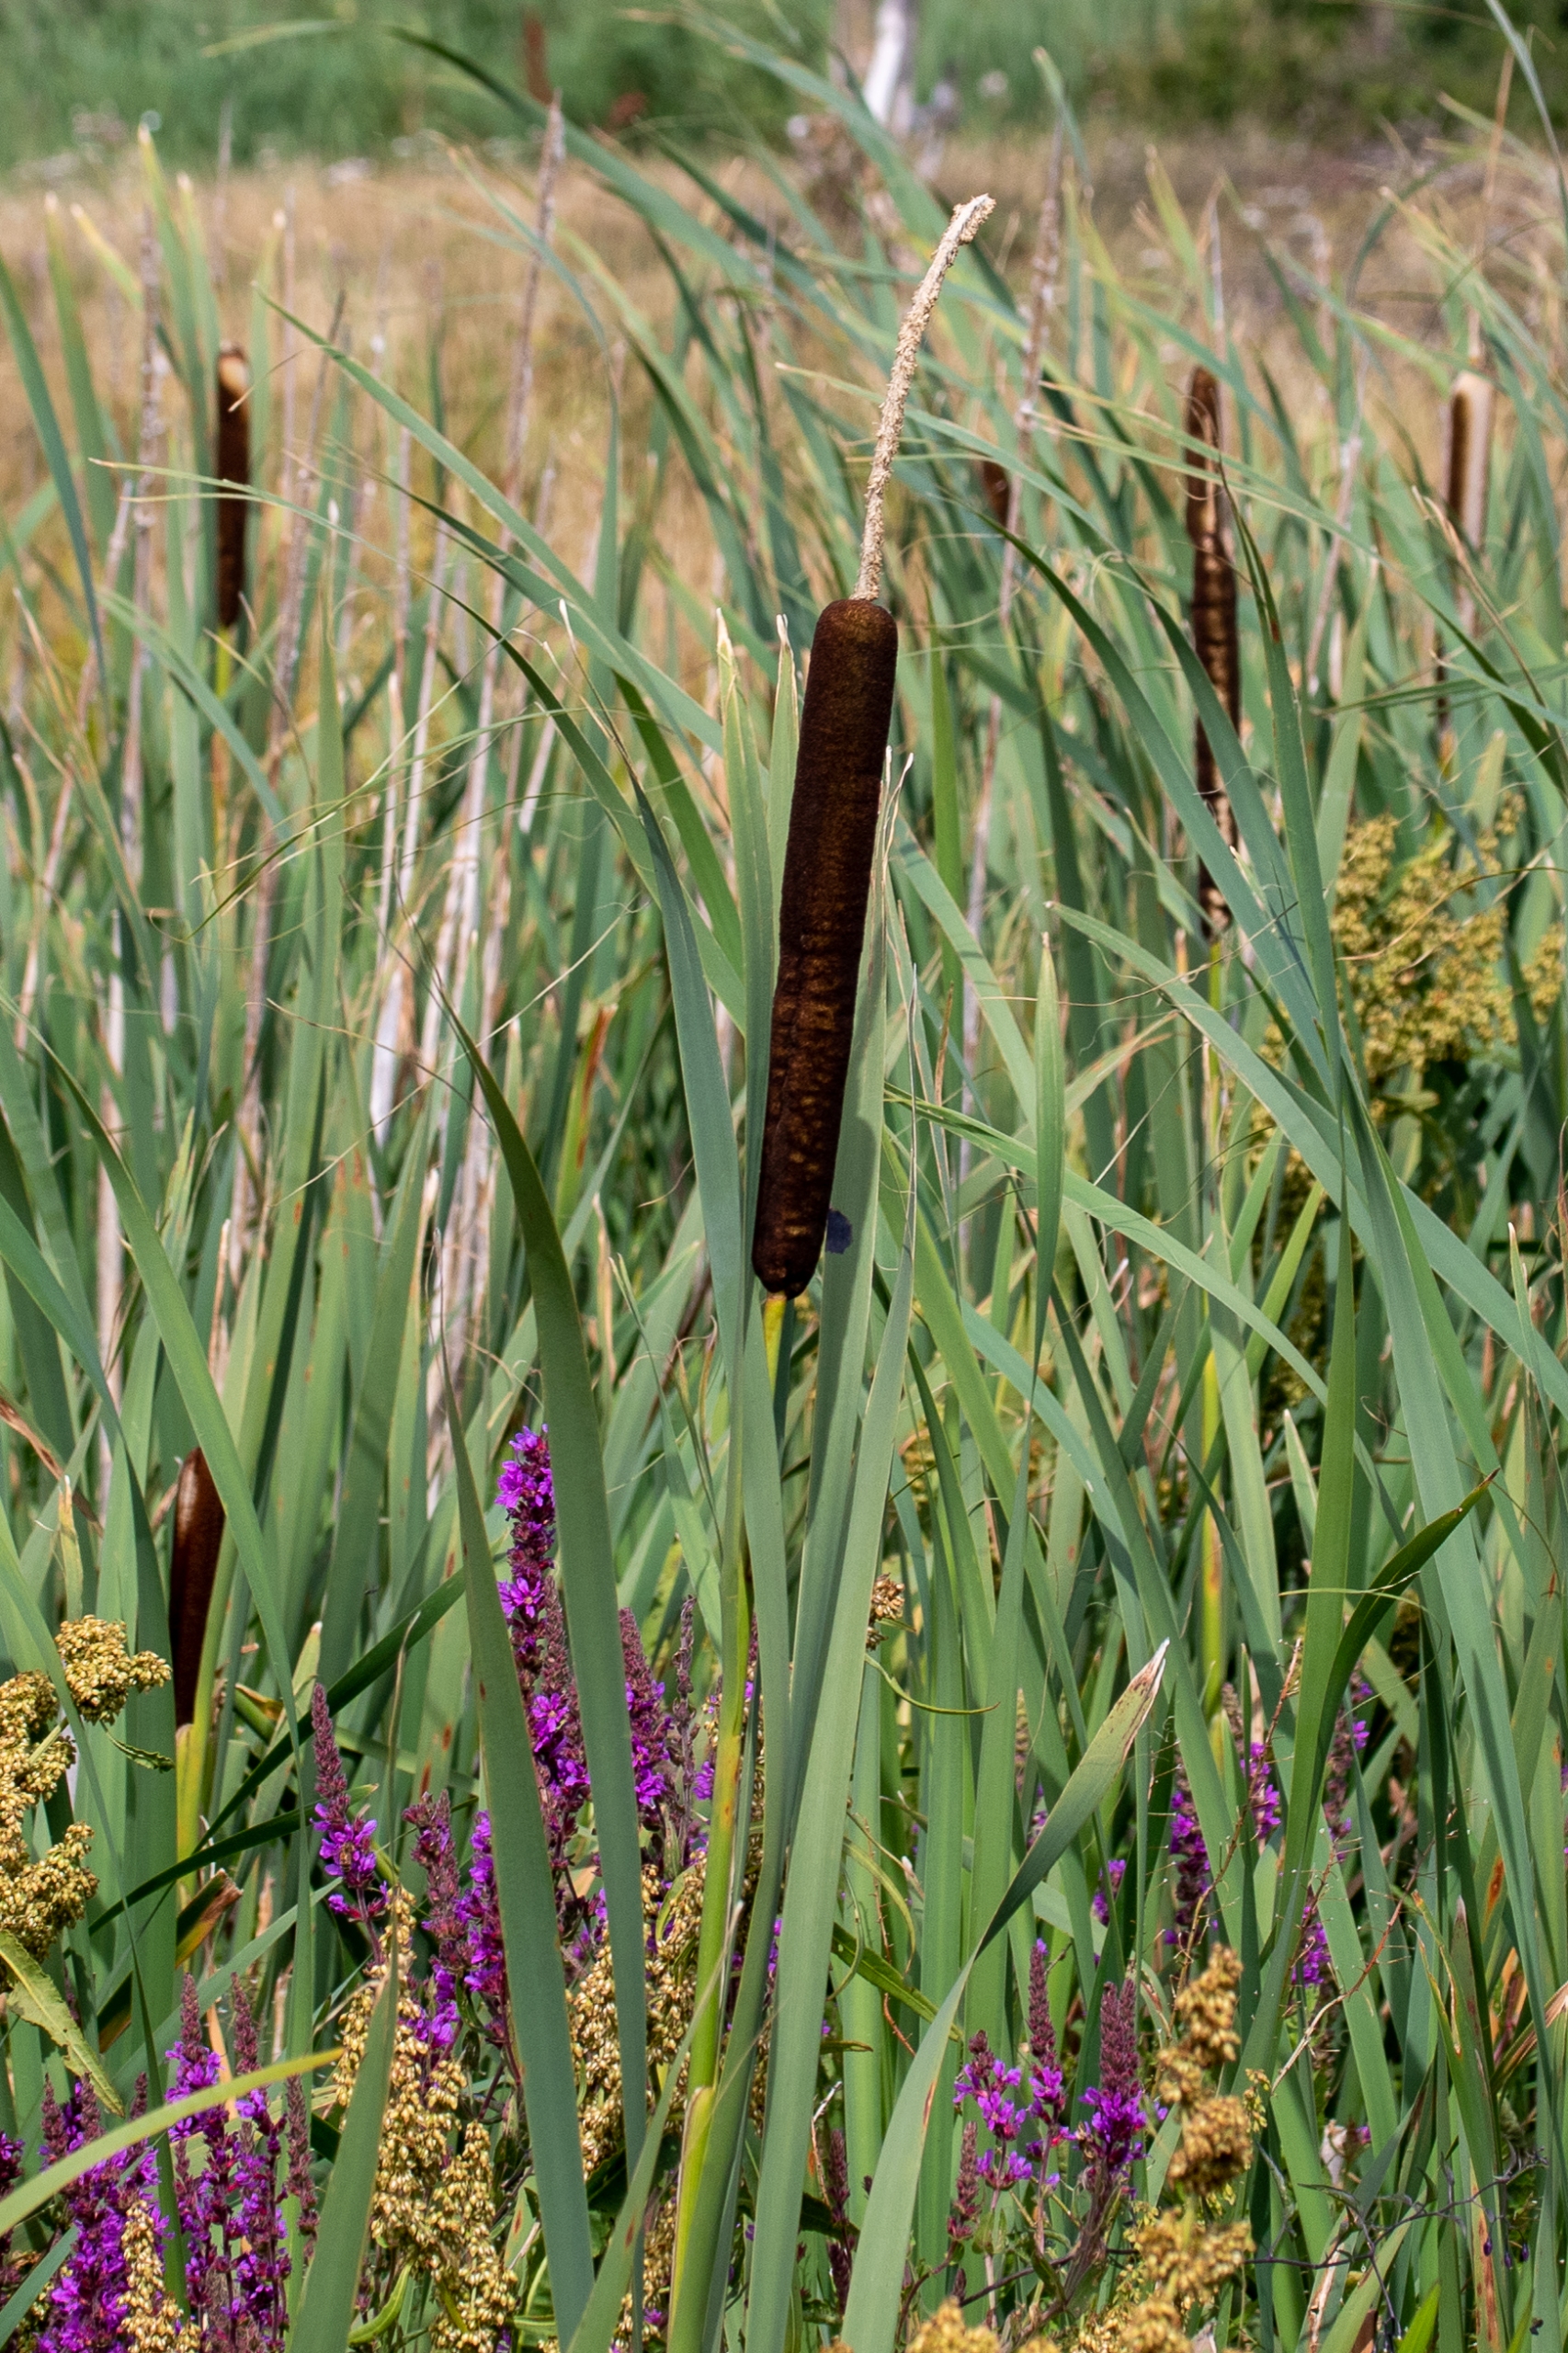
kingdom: Plantae
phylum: Tracheophyta
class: Liliopsida
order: Poales
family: Typhaceae
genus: Typha
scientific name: Typha latifolia
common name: Bredbladet dunhammer
